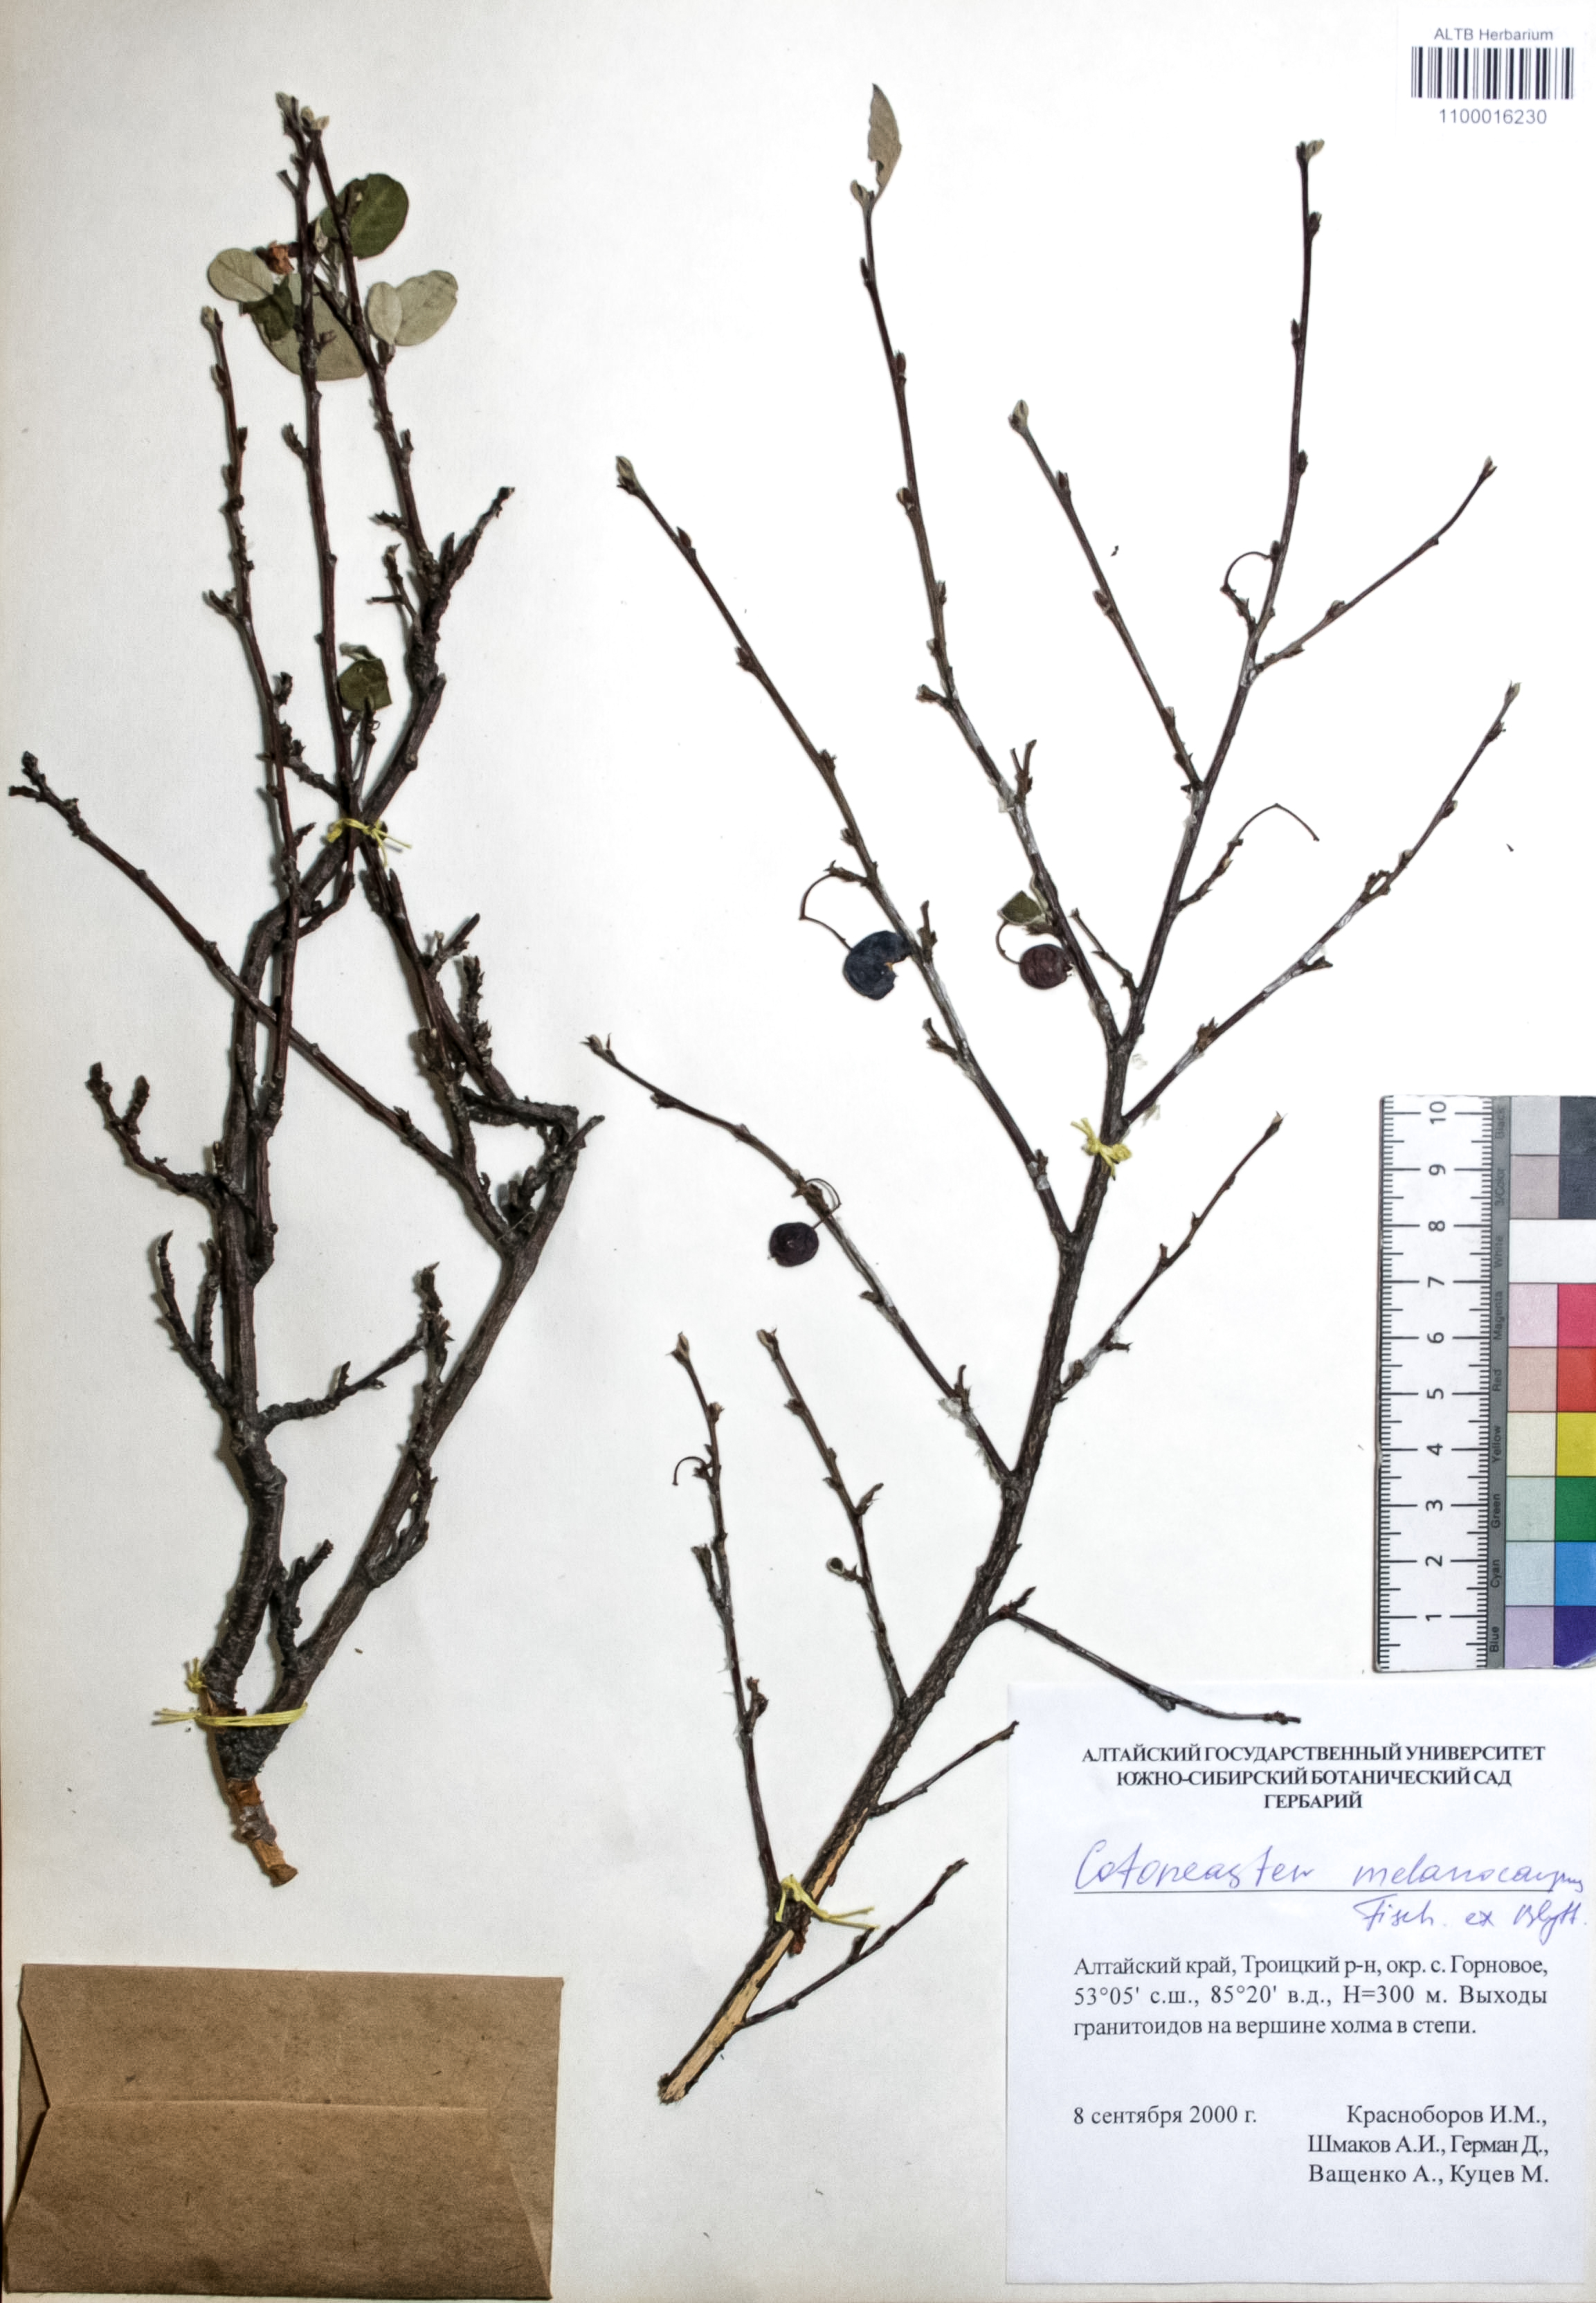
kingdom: Plantae
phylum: Tracheophyta
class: Magnoliopsida
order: Rosales
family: Rosaceae
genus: Cotoneaster
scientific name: Cotoneaster niger
